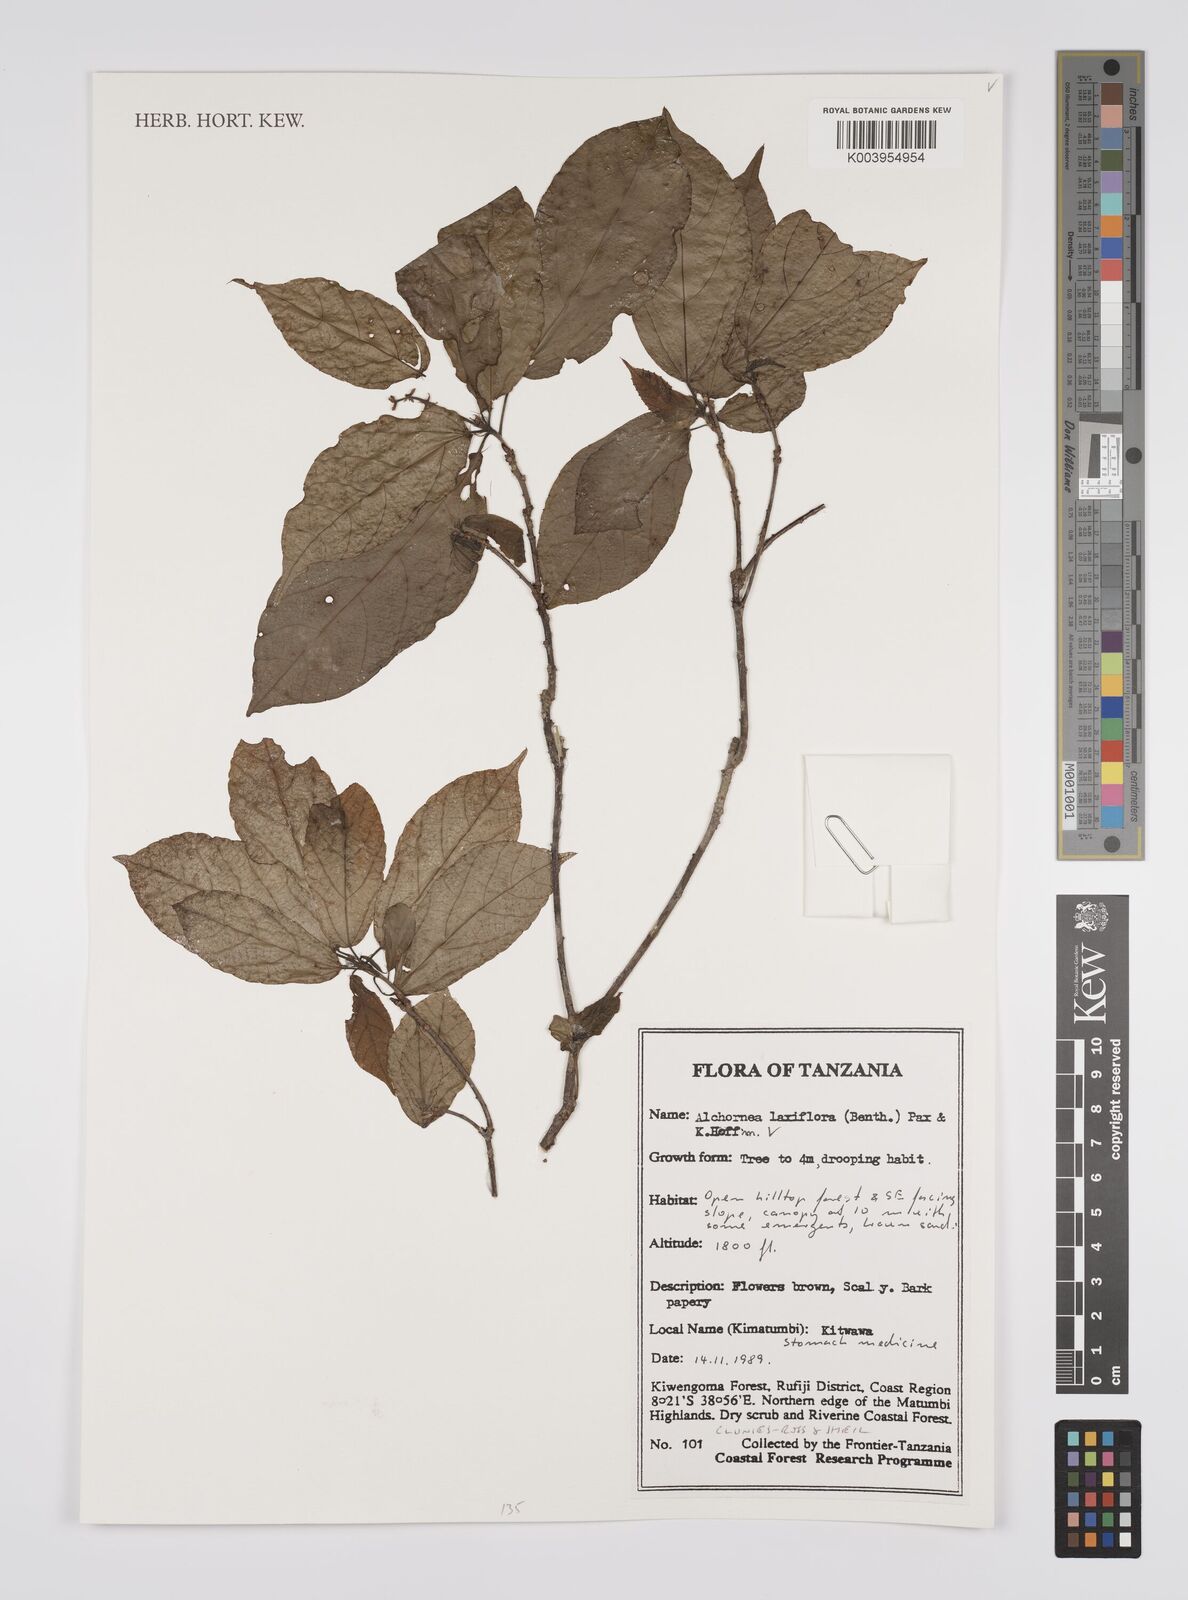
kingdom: Plantae
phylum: Tracheophyta
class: Magnoliopsida
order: Malpighiales
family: Euphorbiaceae
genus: Alchornea
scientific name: Alchornea laxiflora
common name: Lowveld bead-string
